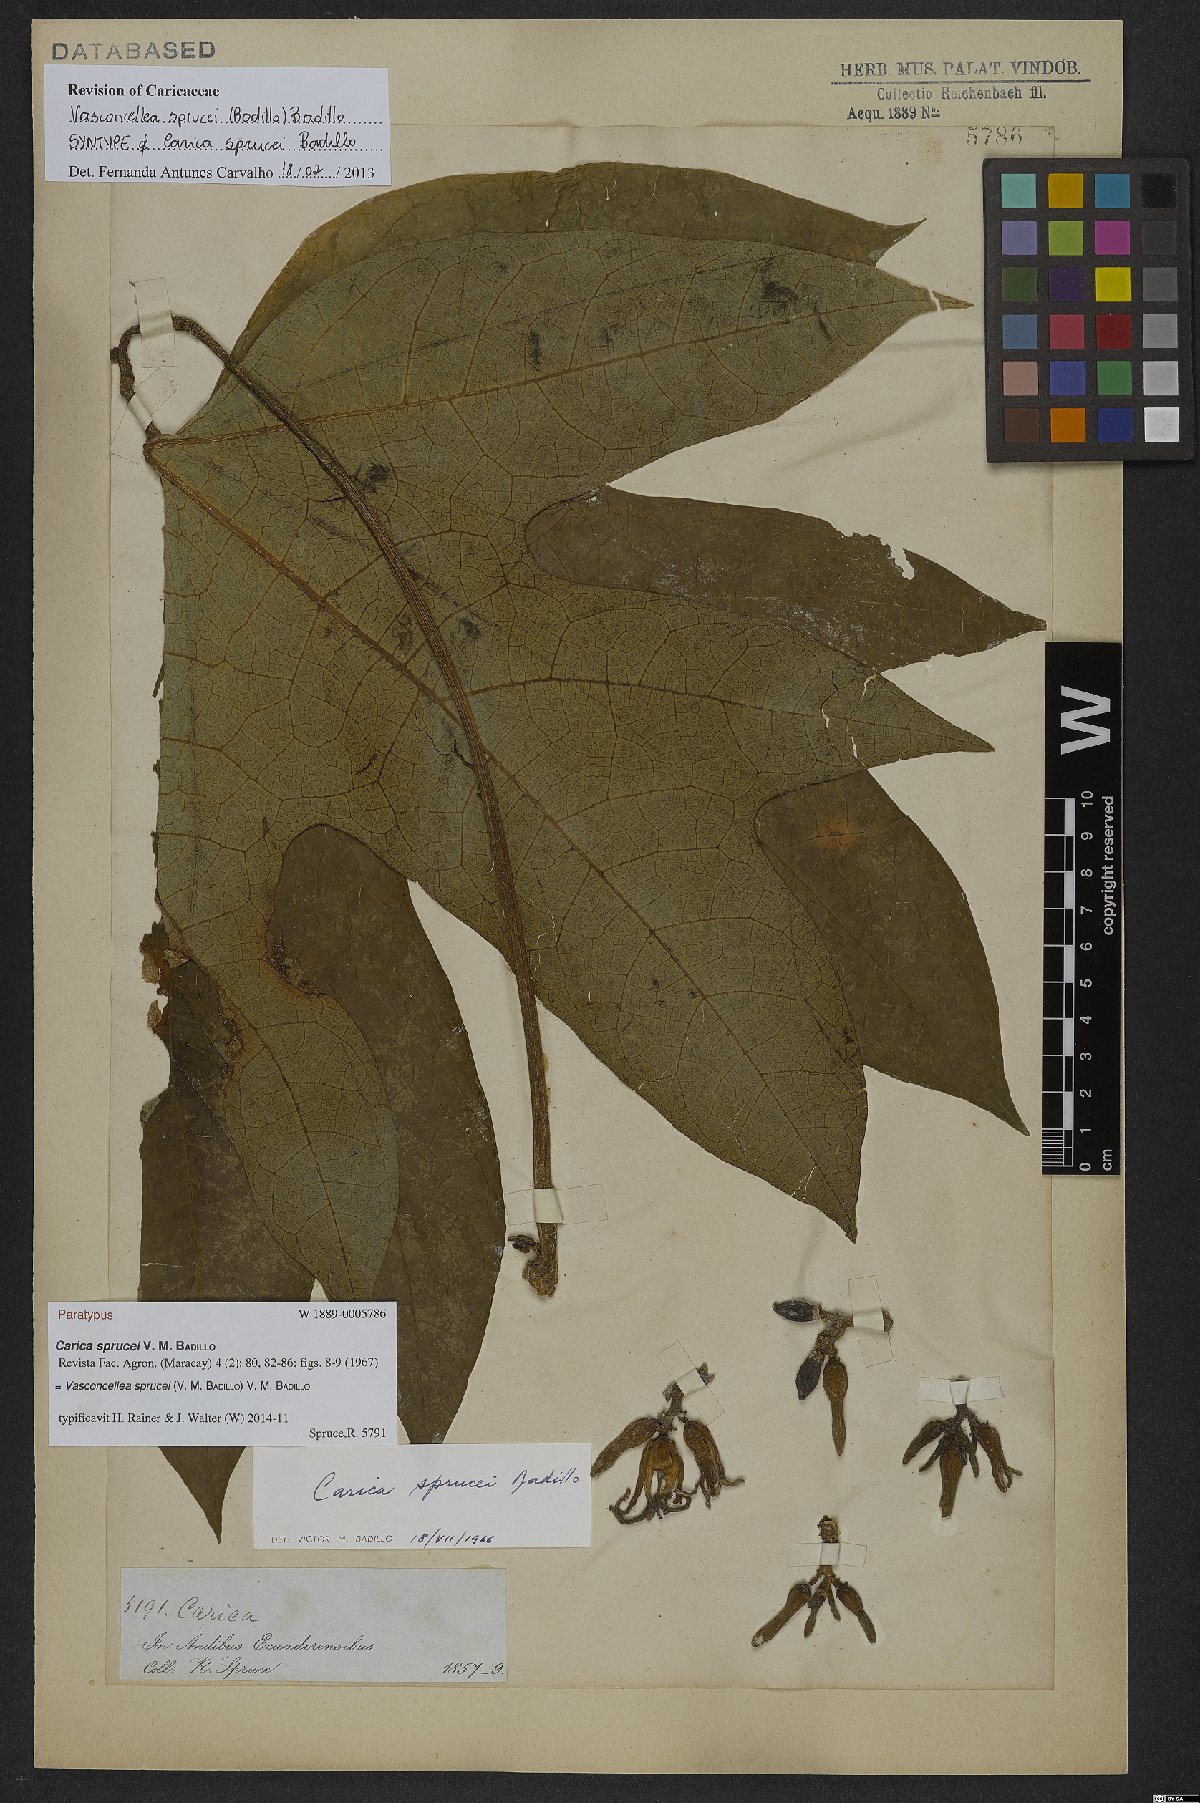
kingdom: Plantae
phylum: Tracheophyta
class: Magnoliopsida
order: Brassicales
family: Caricaceae
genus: Vasconcellea
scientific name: Vasconcellea sprucei
